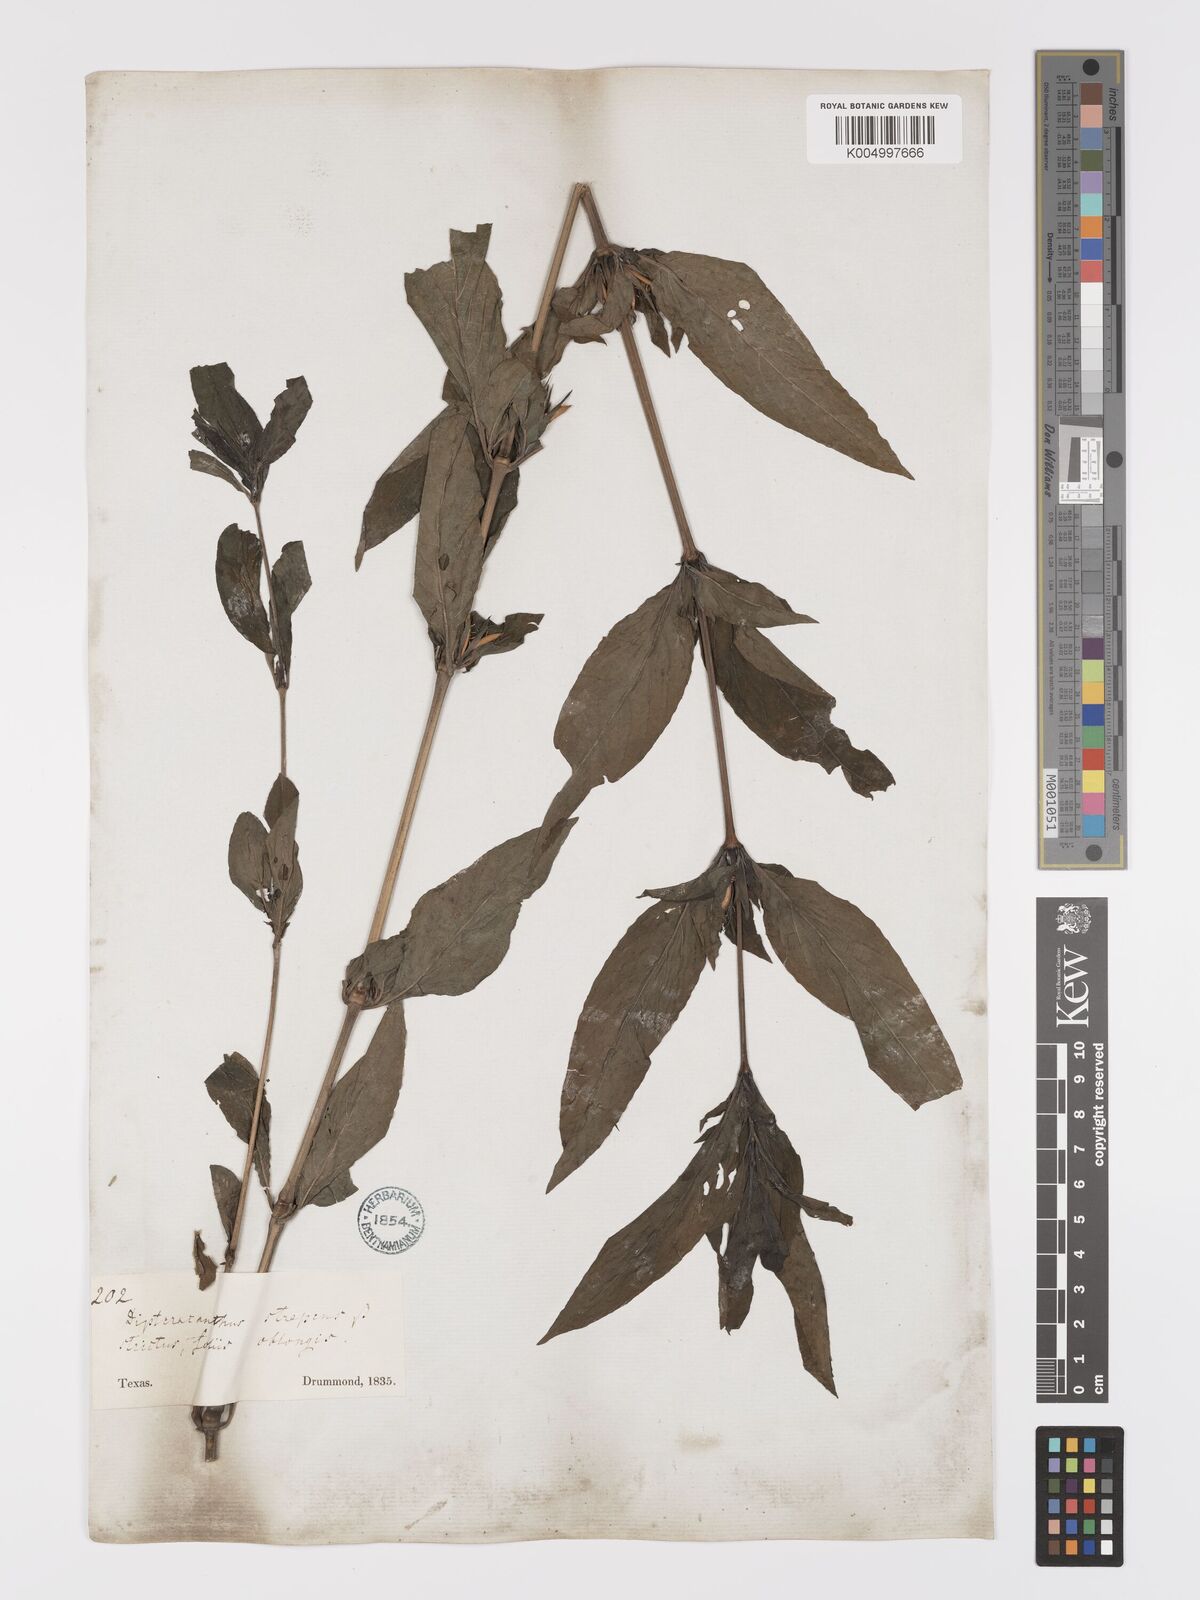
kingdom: Plantae
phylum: Tracheophyta
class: Magnoliopsida
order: Lamiales
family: Acanthaceae
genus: Ruellia
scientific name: Ruellia strepens
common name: Limestone wild petunia
